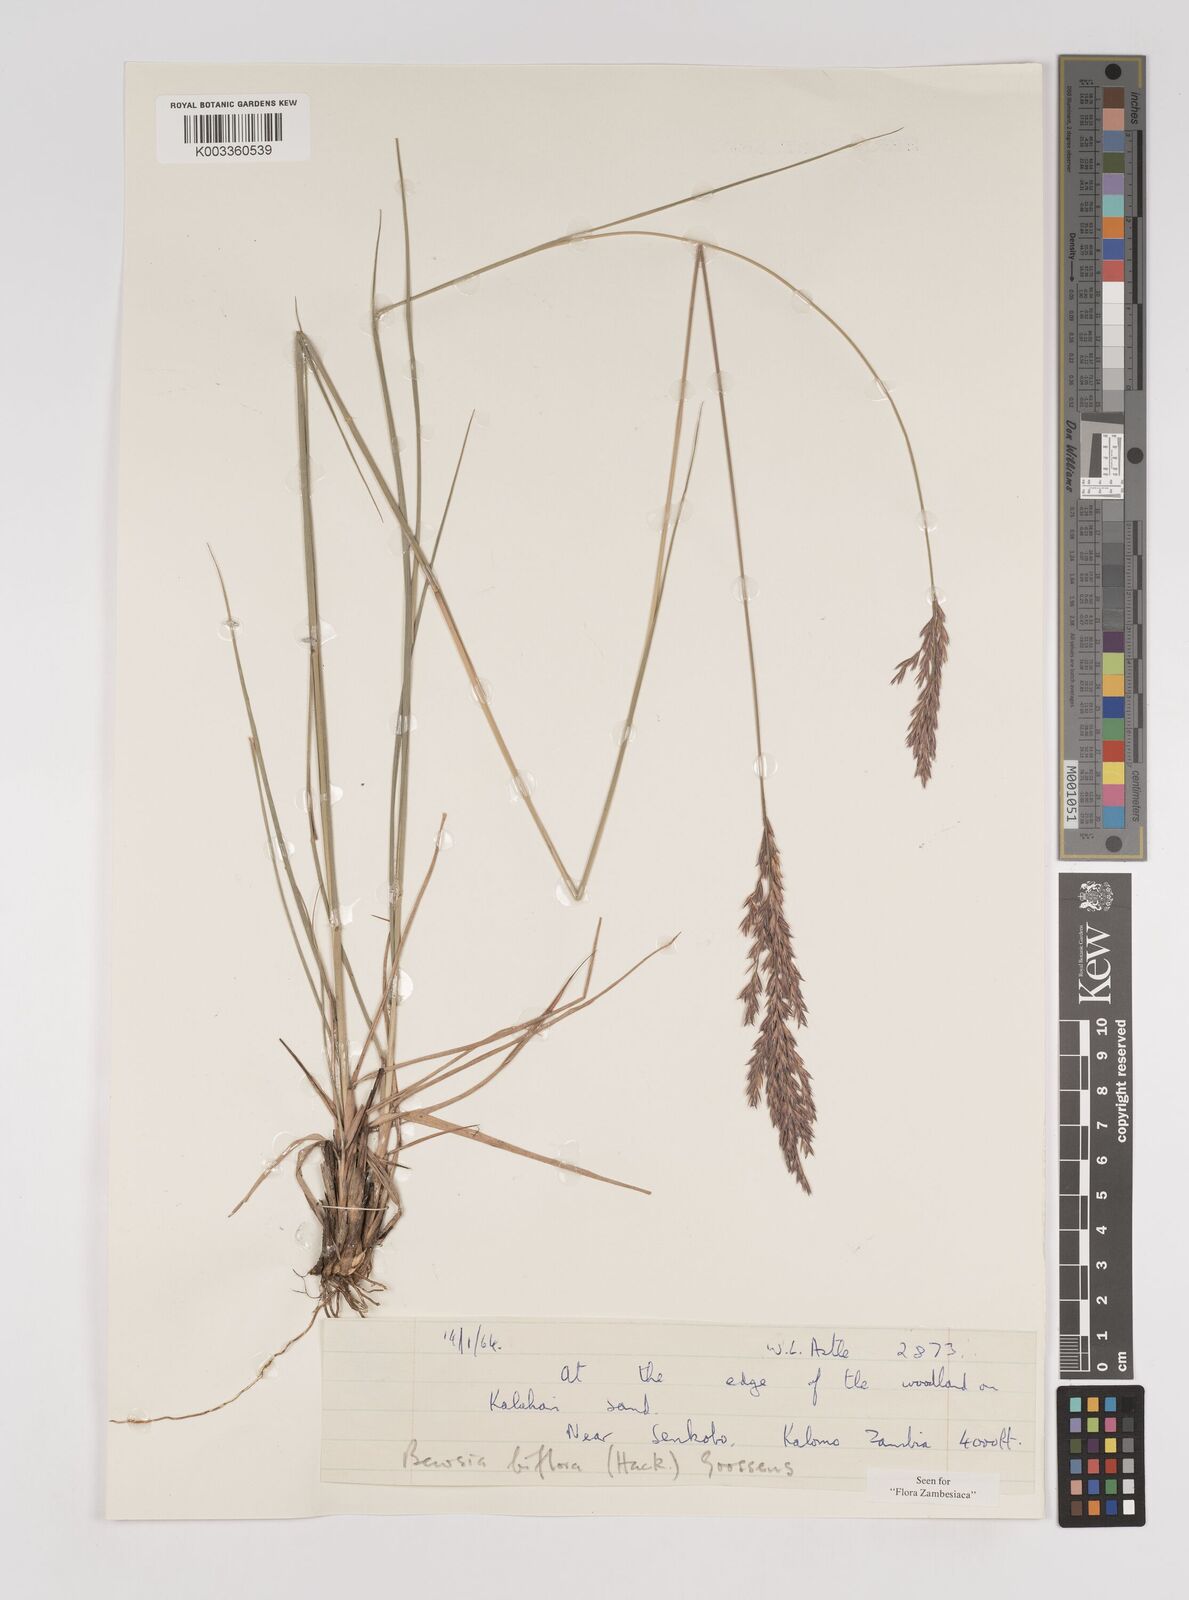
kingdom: Plantae
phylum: Tracheophyta
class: Liliopsida
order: Poales
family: Poaceae
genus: Bewsia
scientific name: Bewsia biflora
